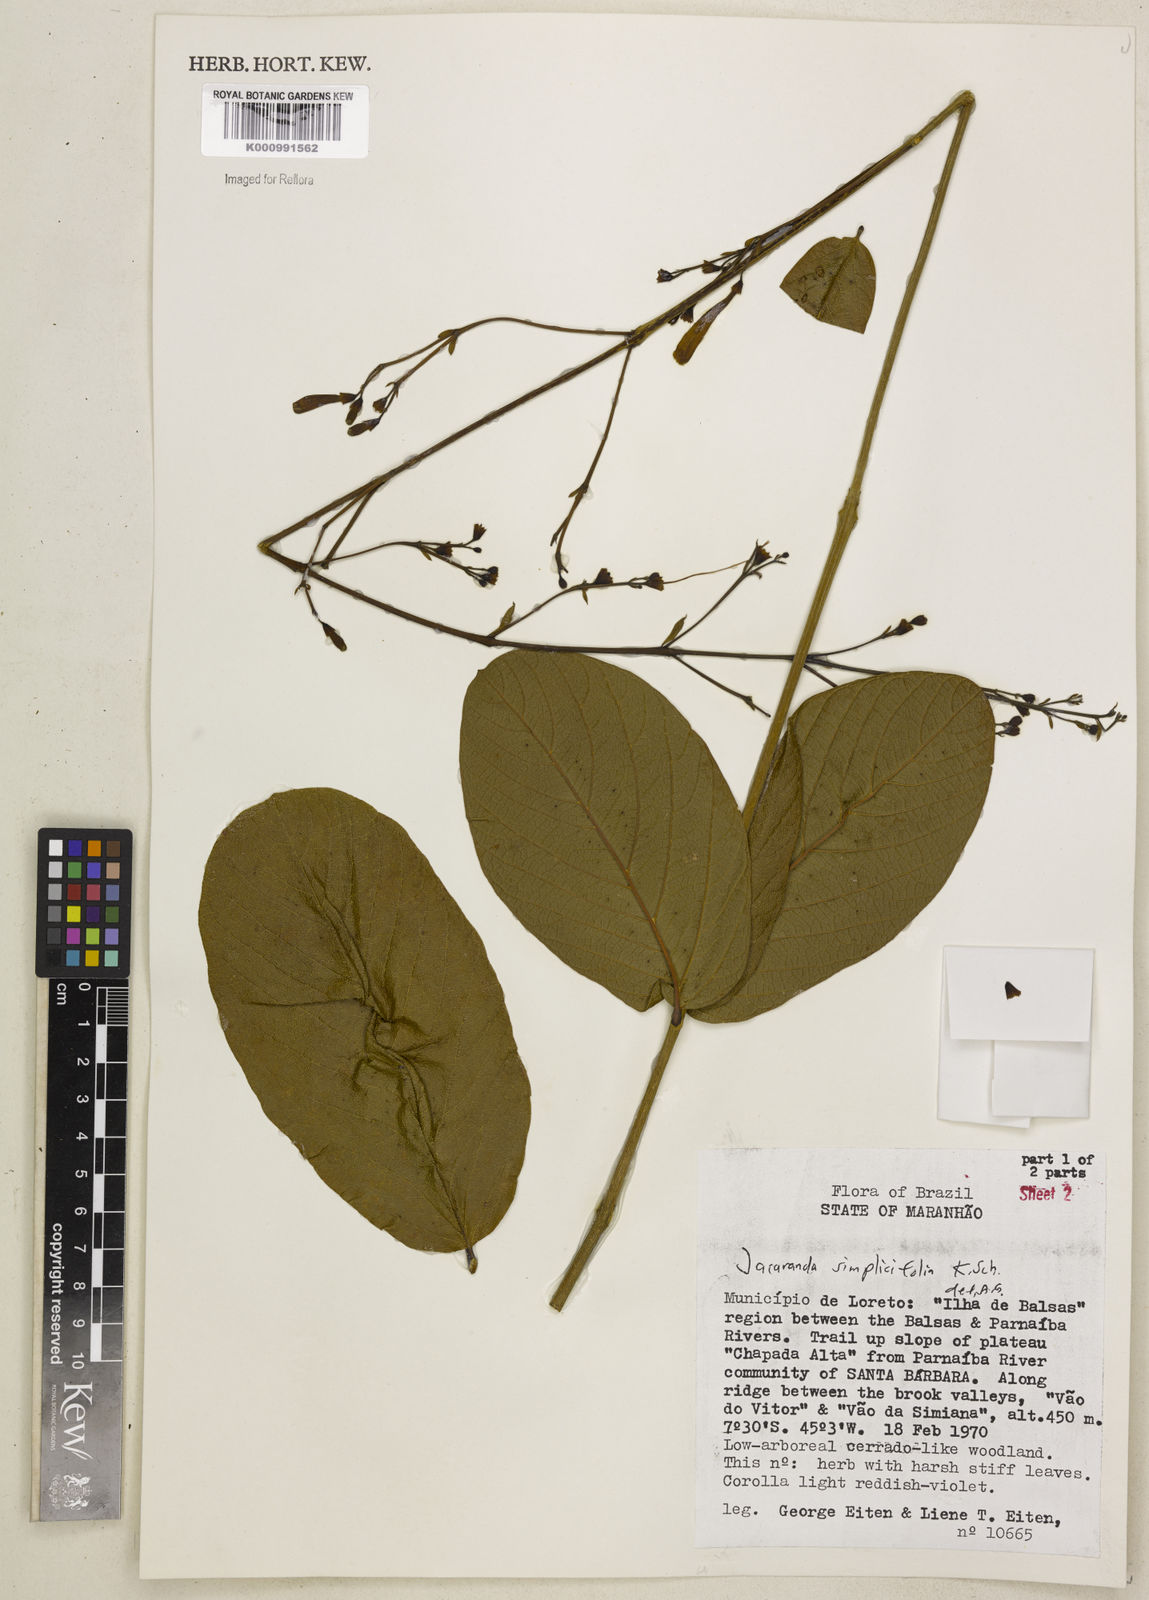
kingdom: Plantae
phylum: Tracheophyta
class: Magnoliopsida
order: Lamiales
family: Bignoniaceae
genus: Jacaranda
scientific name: Jacaranda simplicifolia
